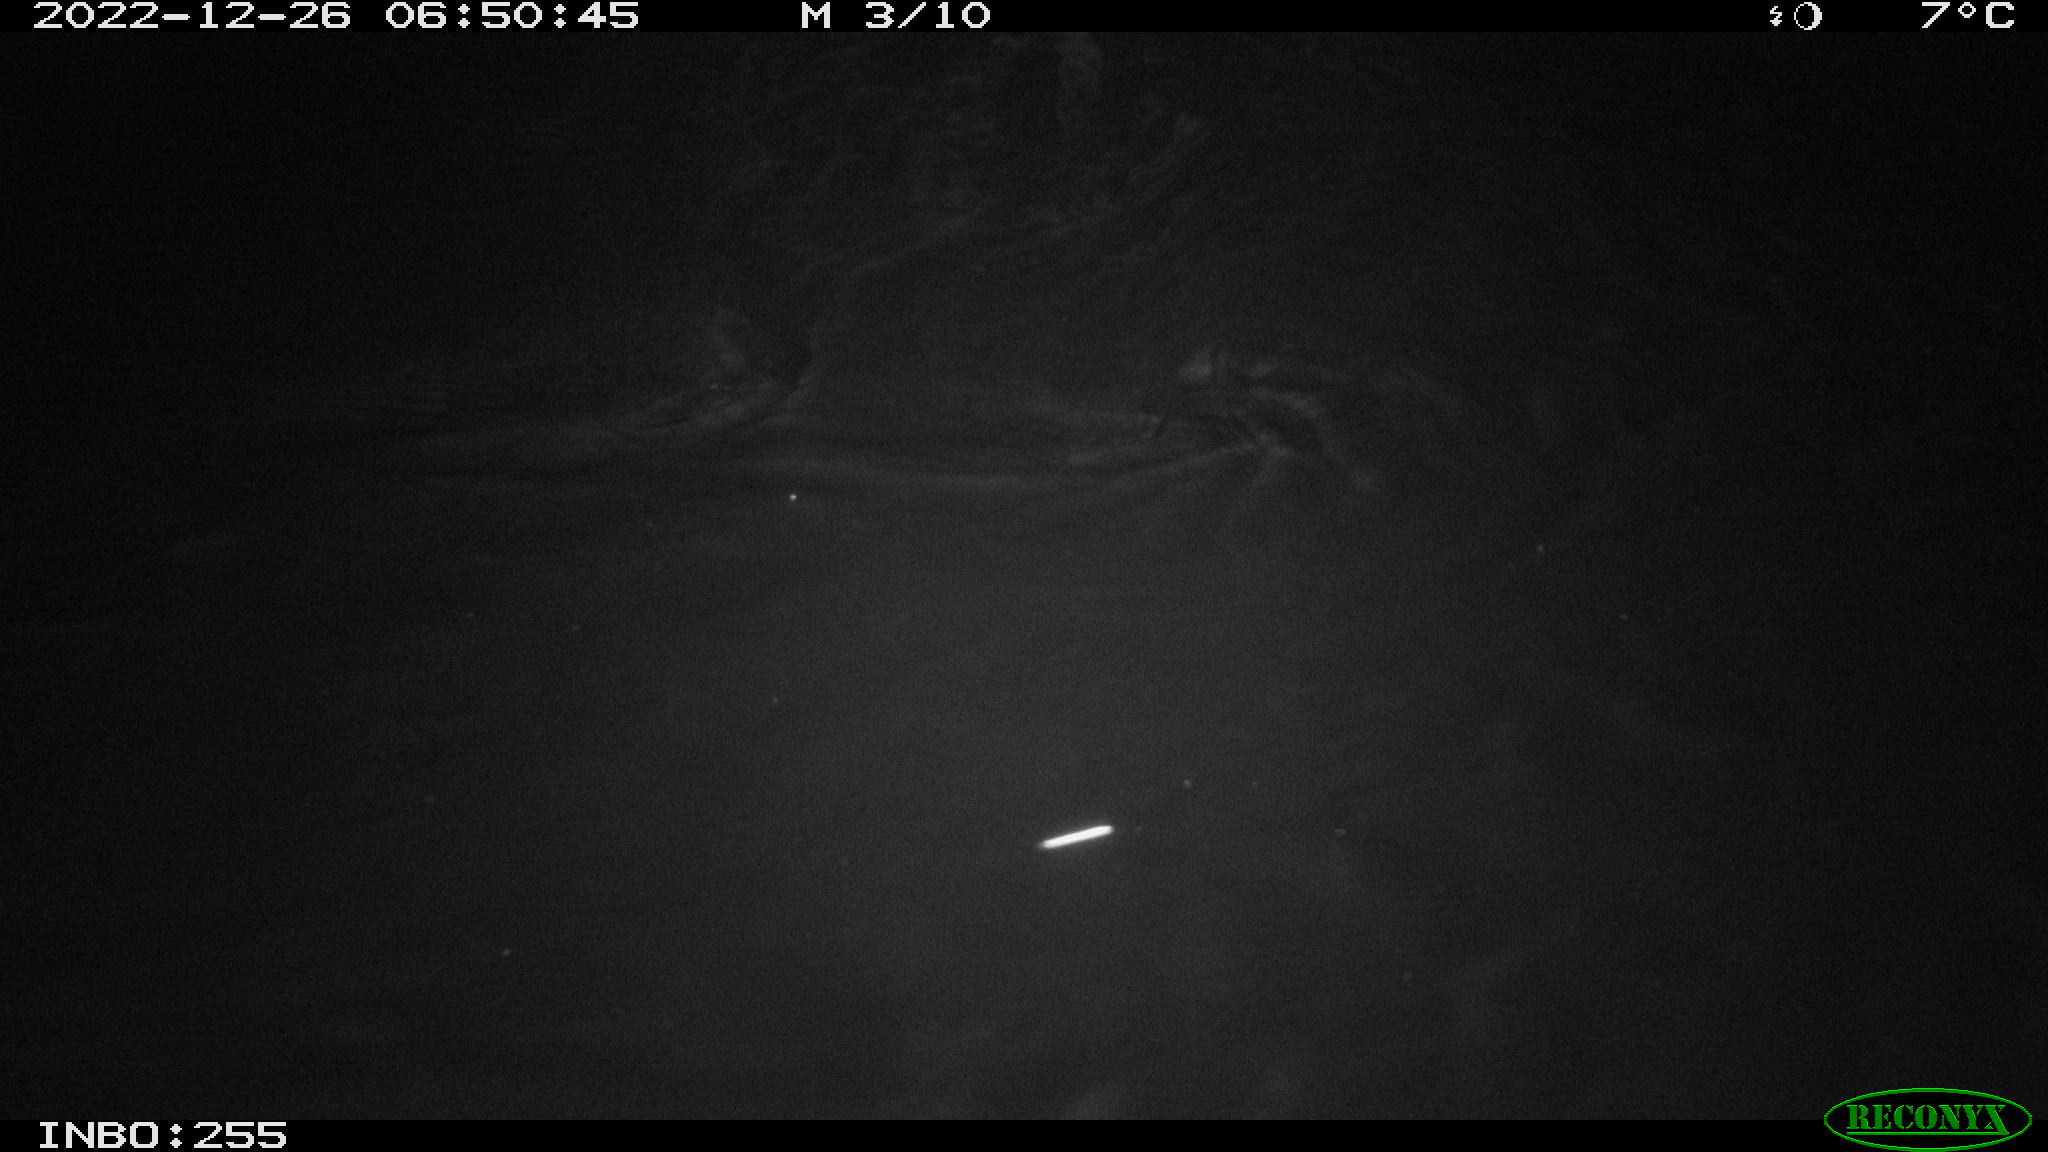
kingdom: Animalia
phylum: Chordata
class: Mammalia
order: Rodentia
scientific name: Rodentia
